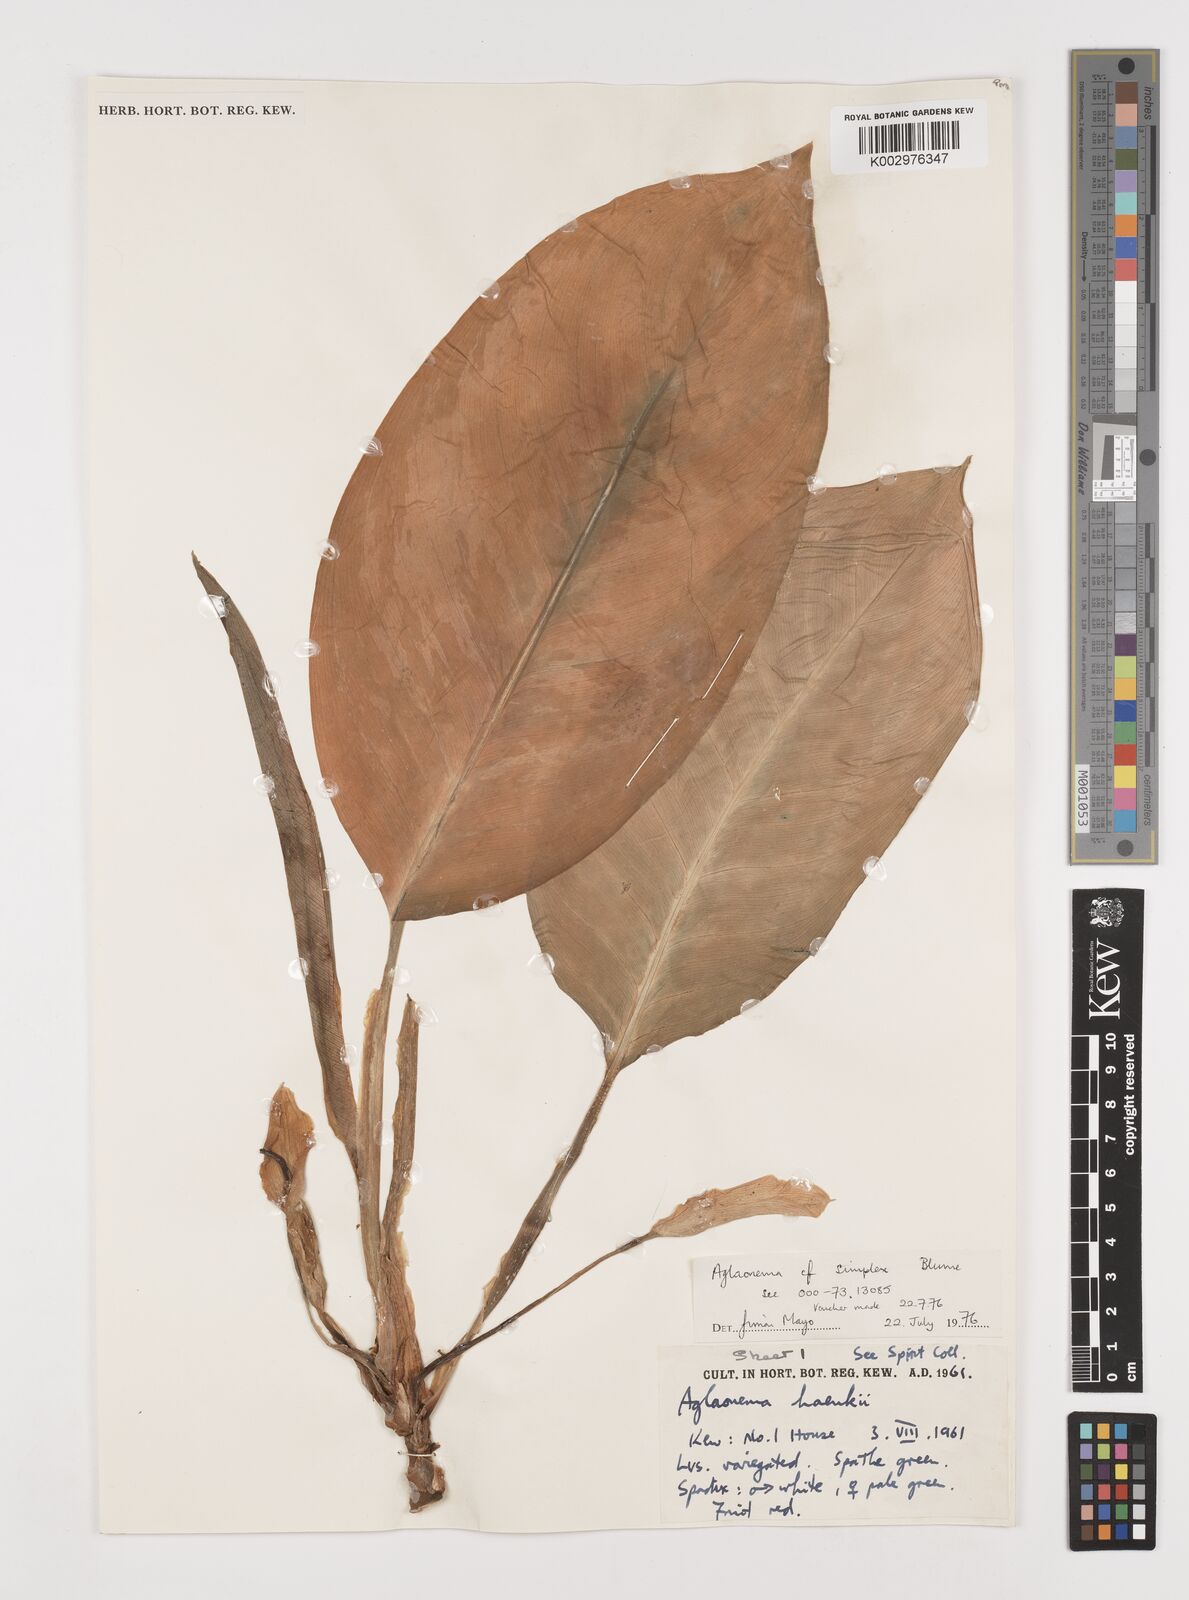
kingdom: Plantae
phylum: Tracheophyta
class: Liliopsida
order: Alismatales
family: Araceae
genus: Aglaonema
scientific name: Aglaonema simplex
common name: Malayan-sword
